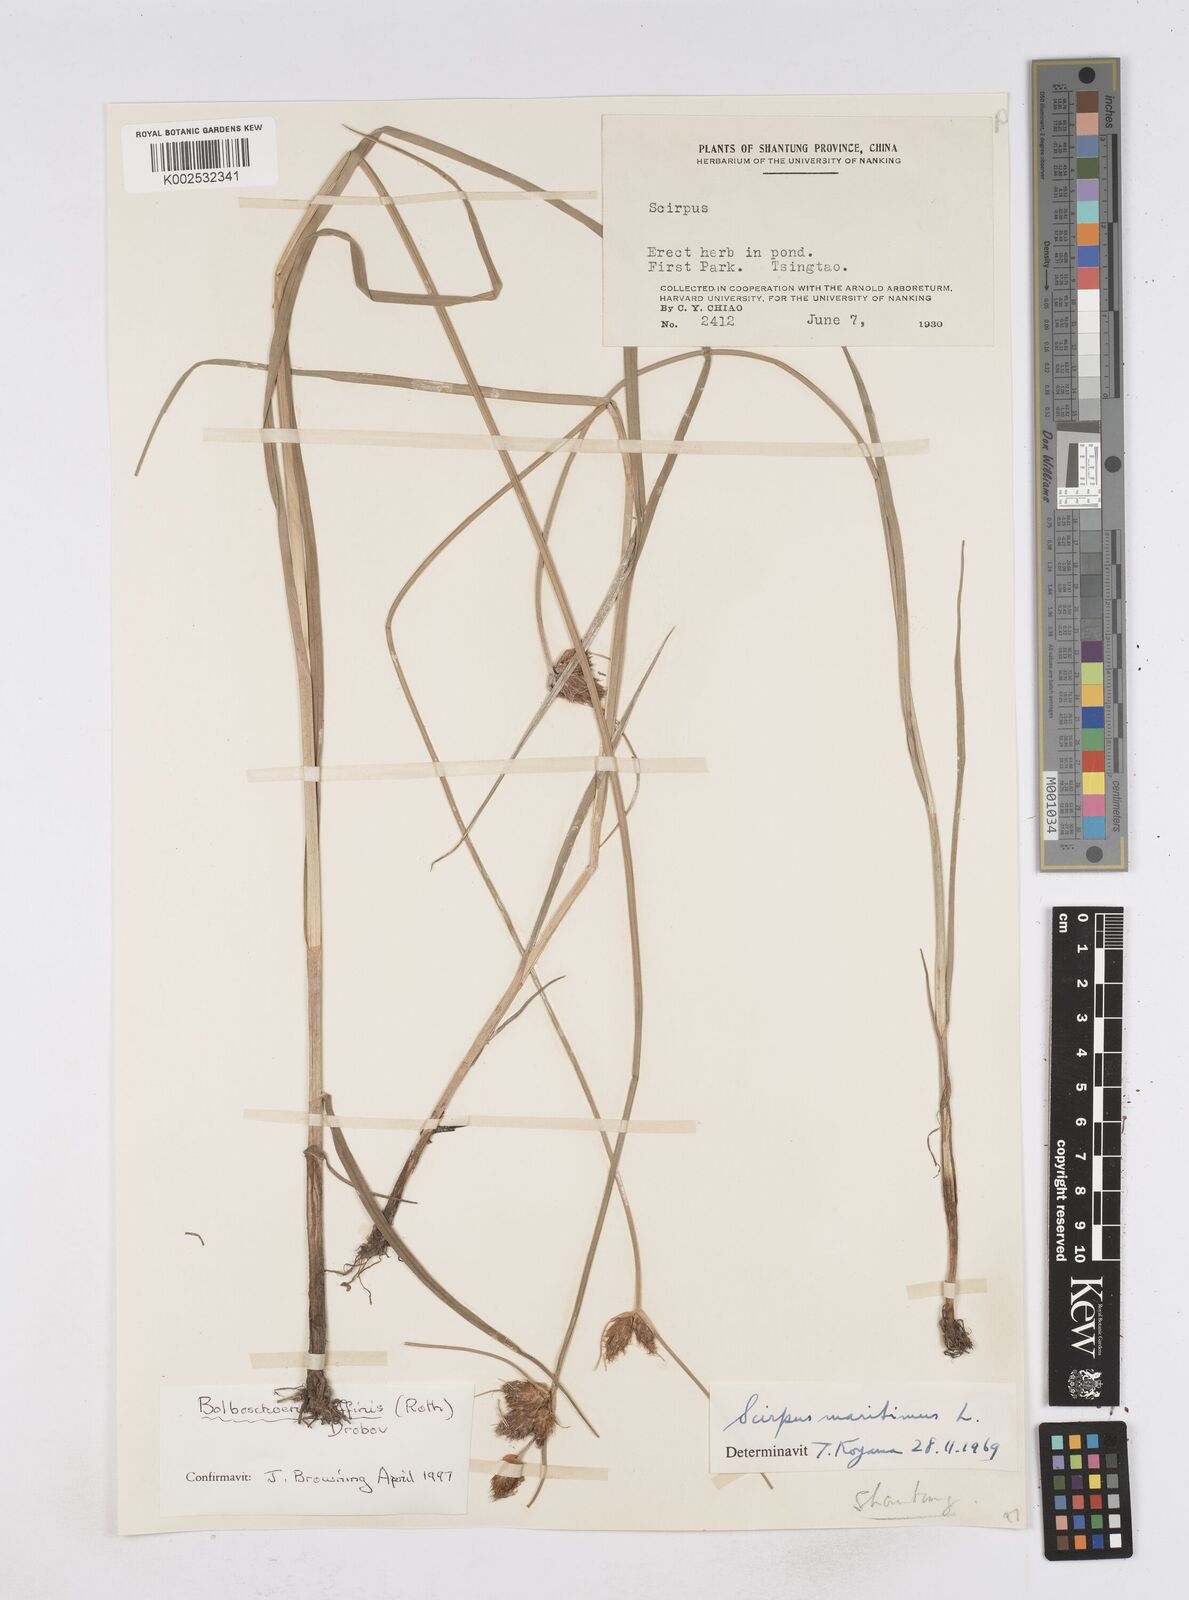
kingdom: Plantae
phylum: Tracheophyta
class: Liliopsida
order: Poales
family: Cyperaceae
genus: Bolboschoenus
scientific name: Bolboschoenus maritimus
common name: Sea club-rush
